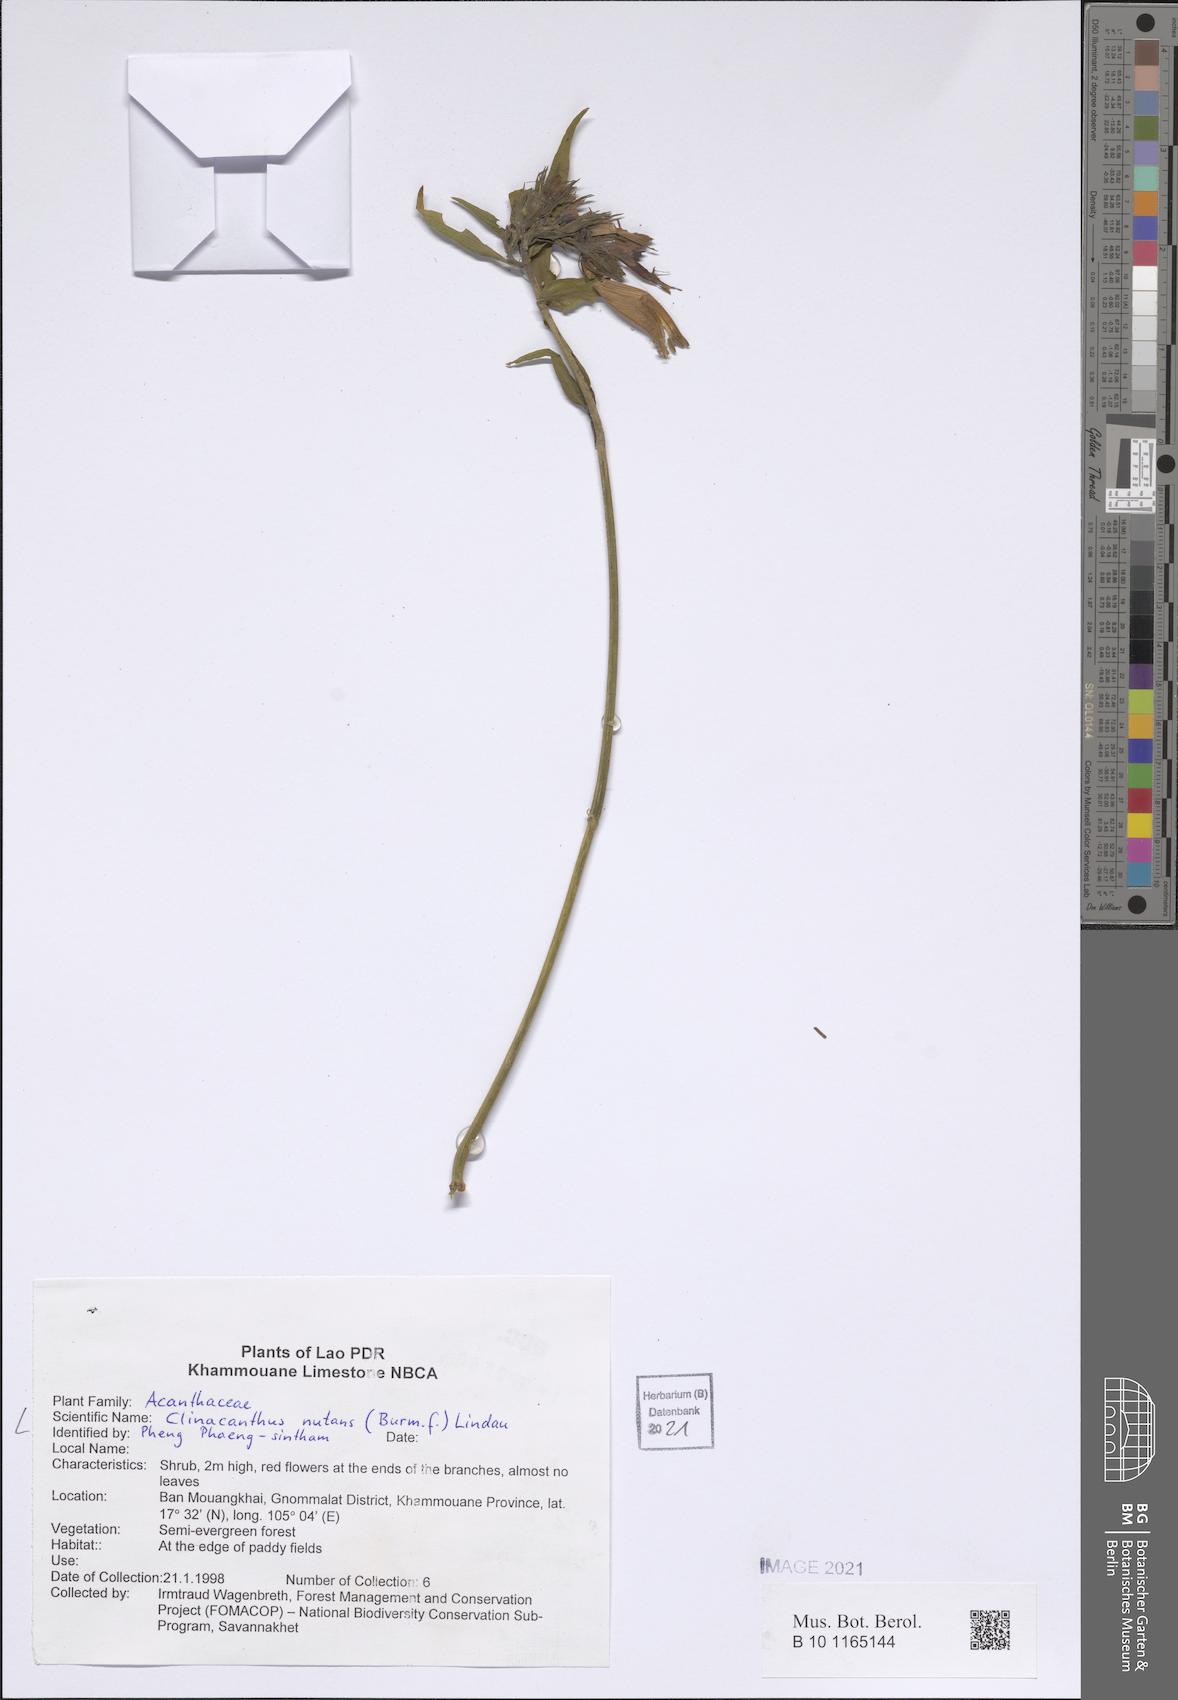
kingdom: Plantae
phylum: Tracheophyta
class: Magnoliopsida
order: Lamiales
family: Acanthaceae
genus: Clinacanthus
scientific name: Clinacanthus nutans
